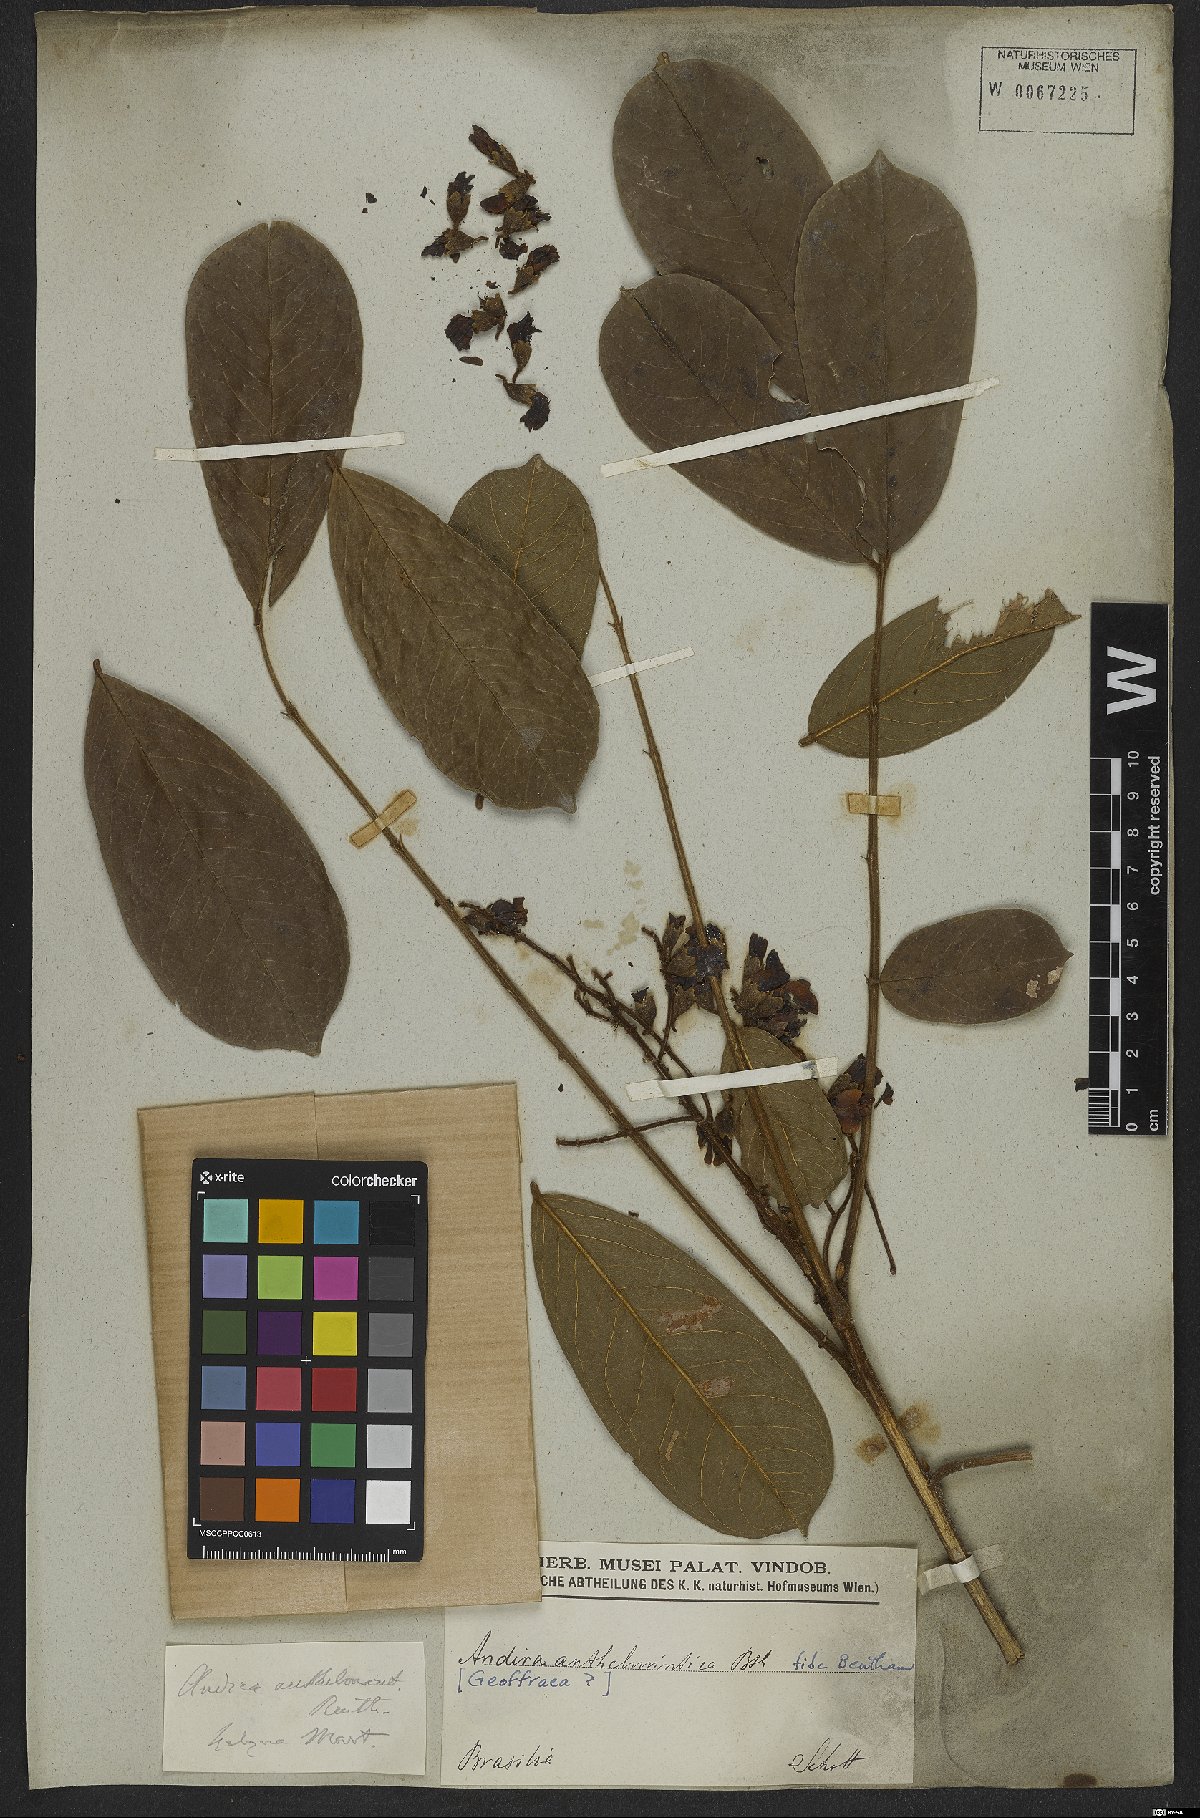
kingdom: Plantae
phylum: Tracheophyta
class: Magnoliopsida
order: Fabales
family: Fabaceae
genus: Andira
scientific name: Andira anthelmia
